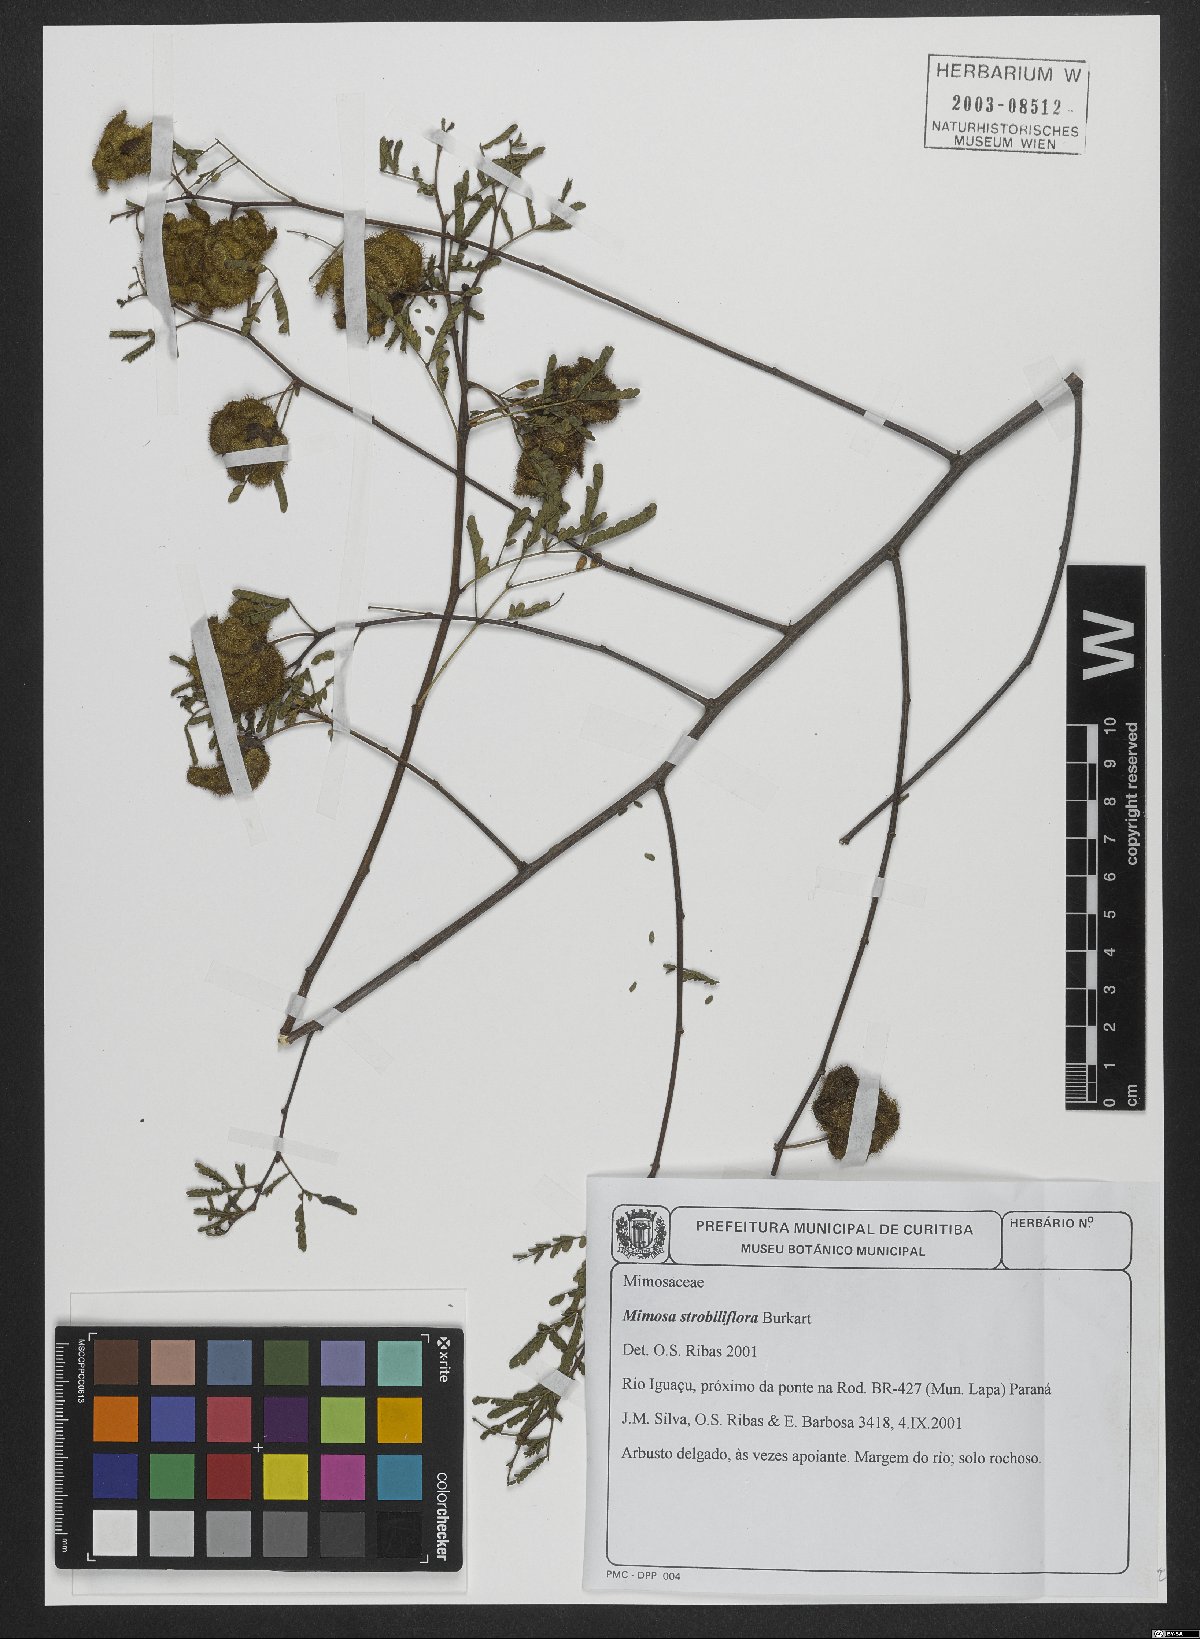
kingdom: Plantae
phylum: Tracheophyta
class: Magnoliopsida
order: Fabales
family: Fabaceae
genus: Mimosa
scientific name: Mimosa strobiliflora
